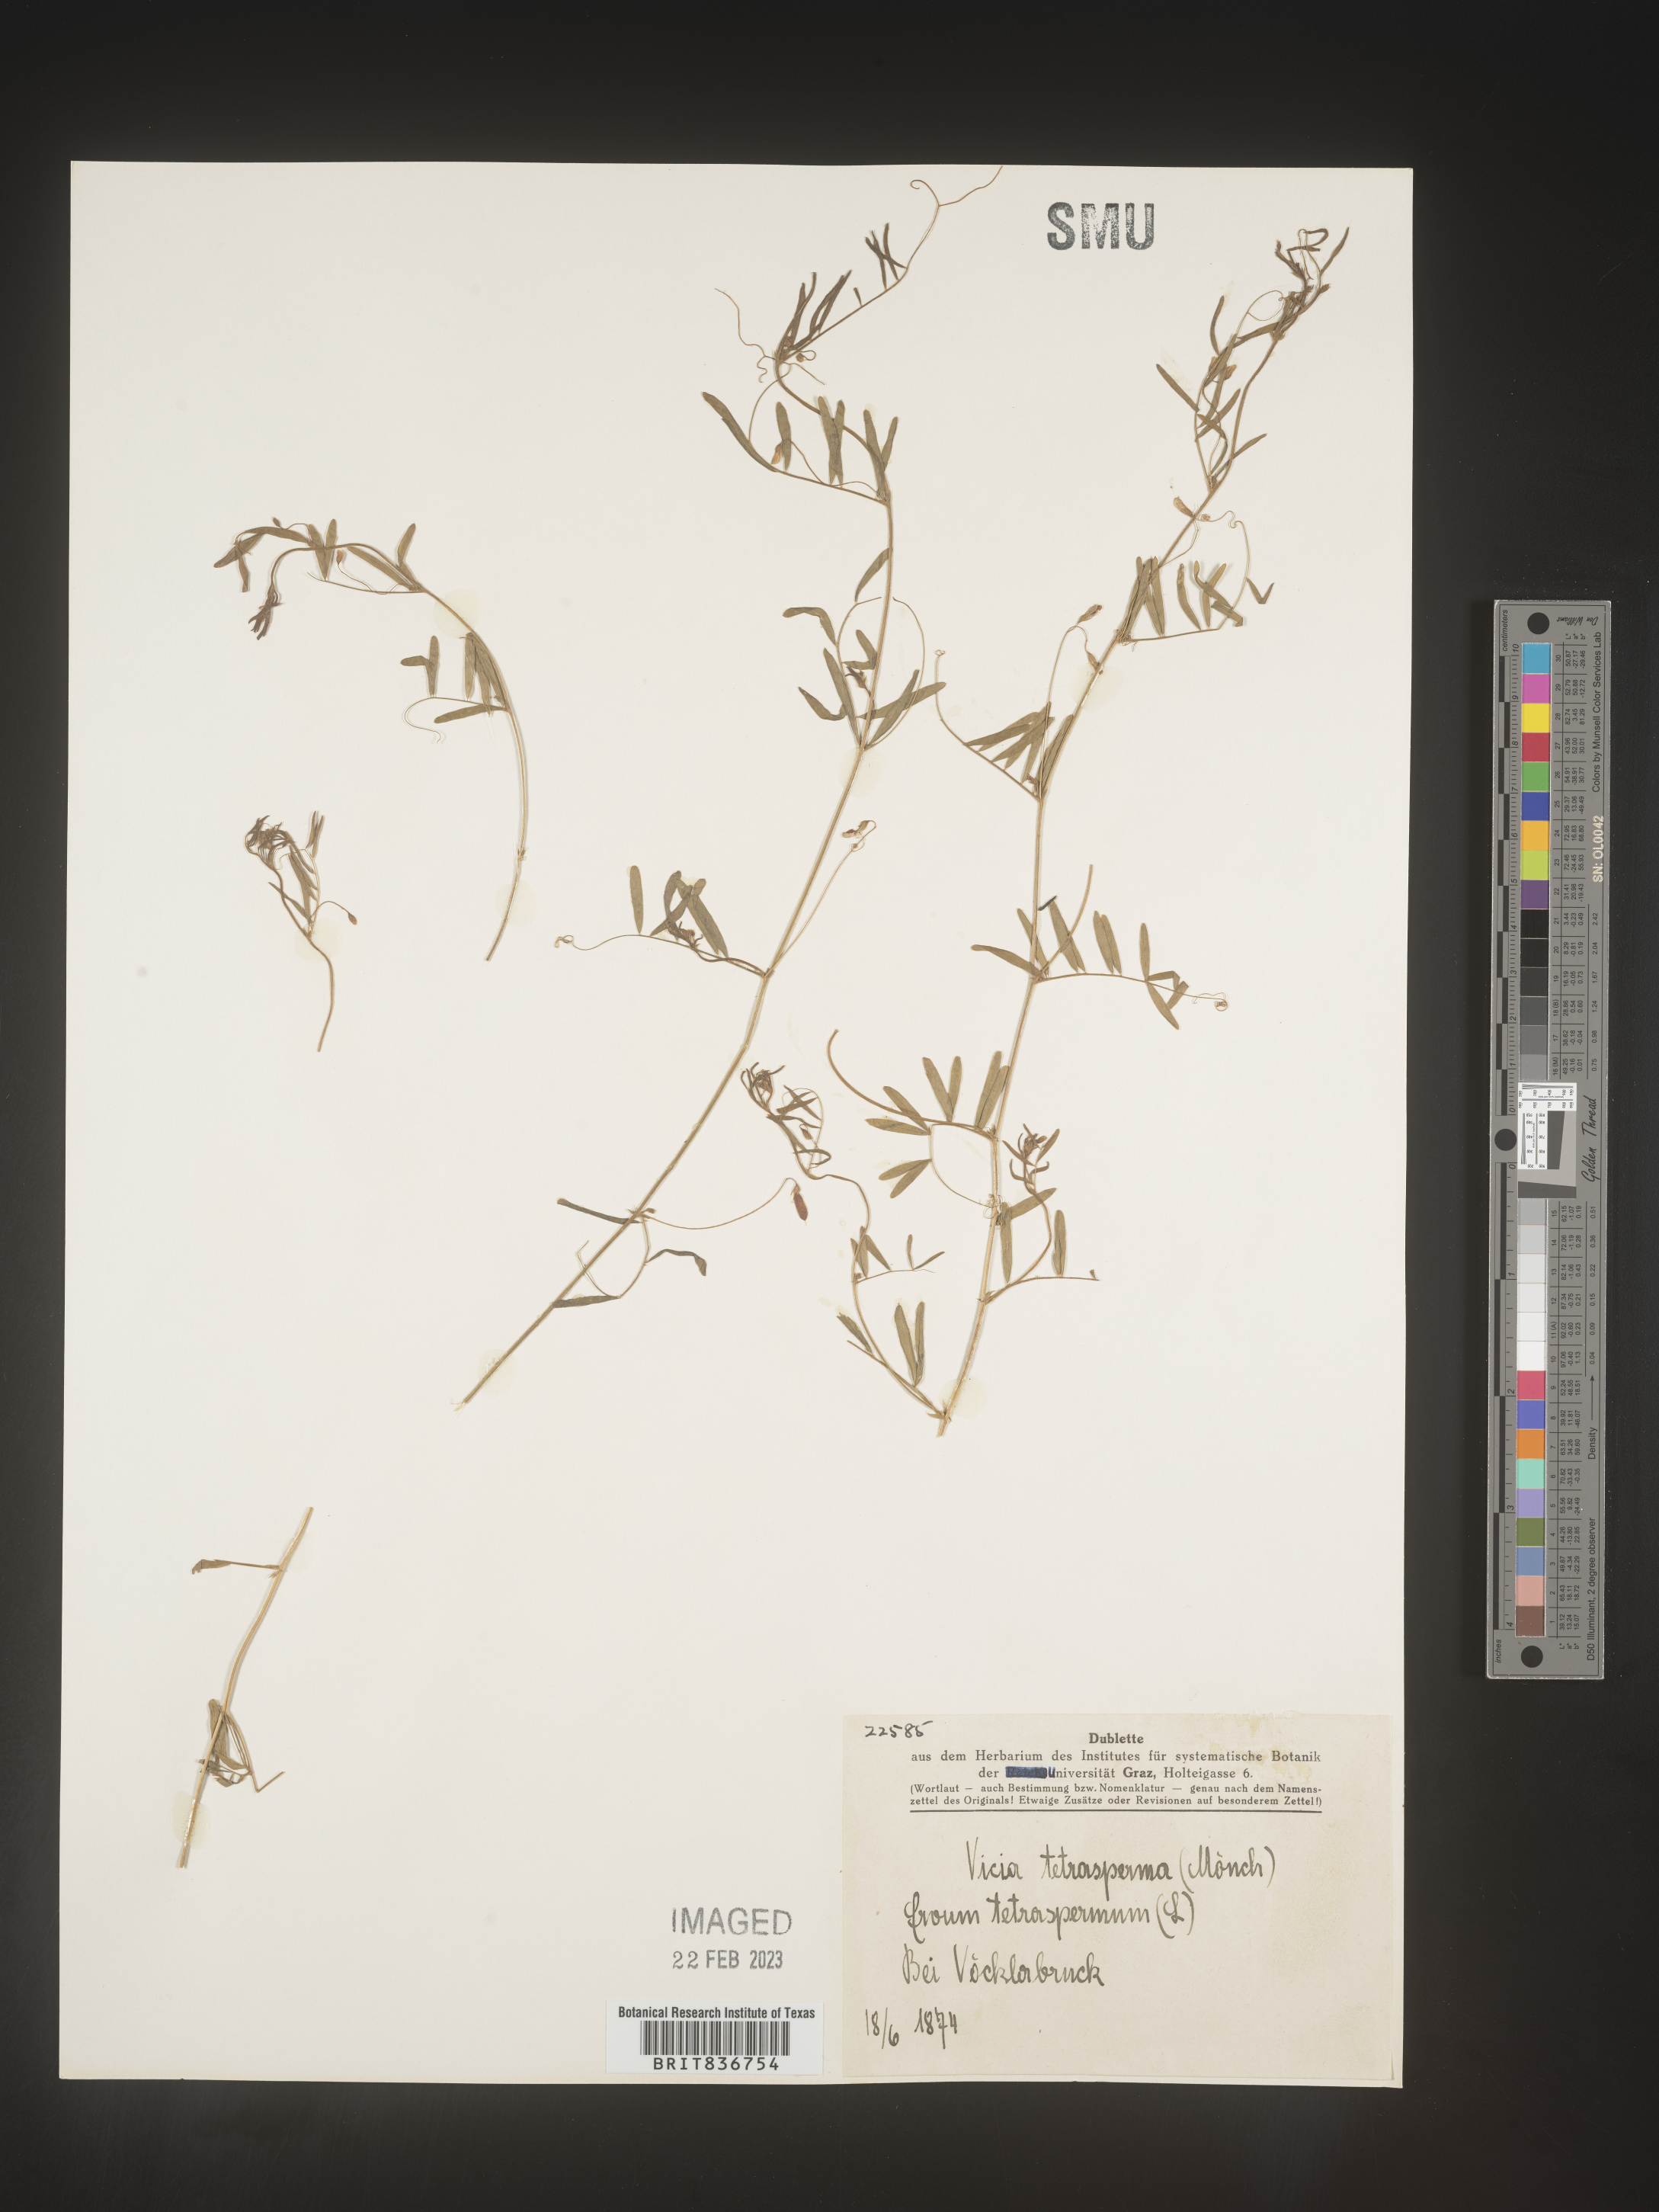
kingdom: Plantae
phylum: Tracheophyta
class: Magnoliopsida
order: Fabales
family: Fabaceae
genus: Vicia
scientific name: Vicia
